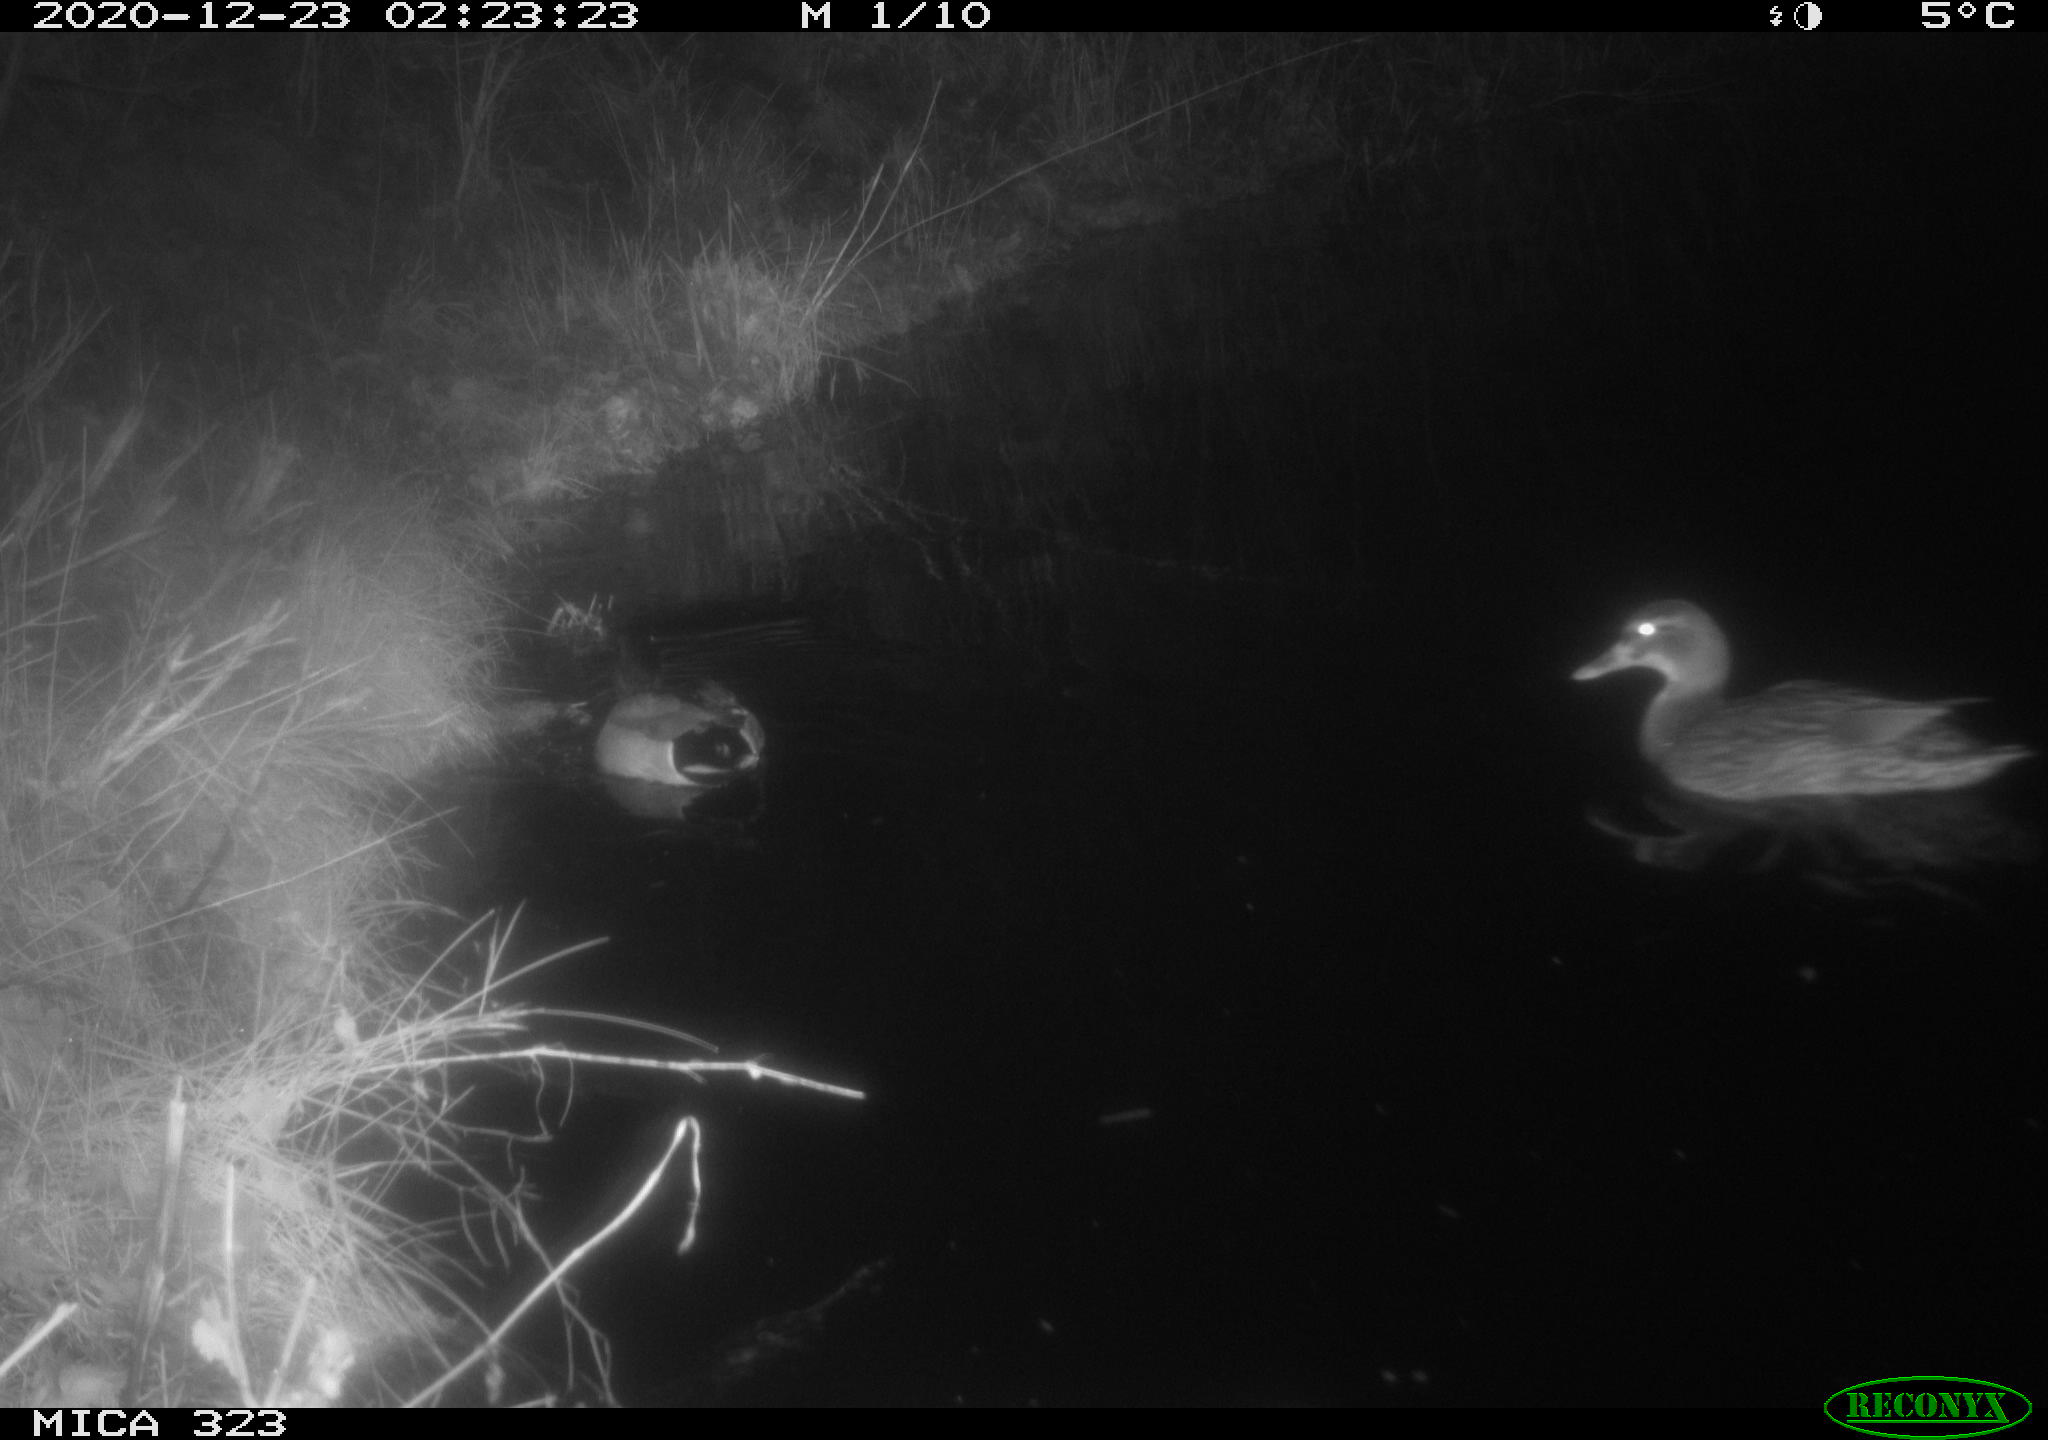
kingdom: Animalia
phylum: Chordata
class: Aves
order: Anseriformes
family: Anatidae
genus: Anas
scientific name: Anas platyrhynchos
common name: Mallard
